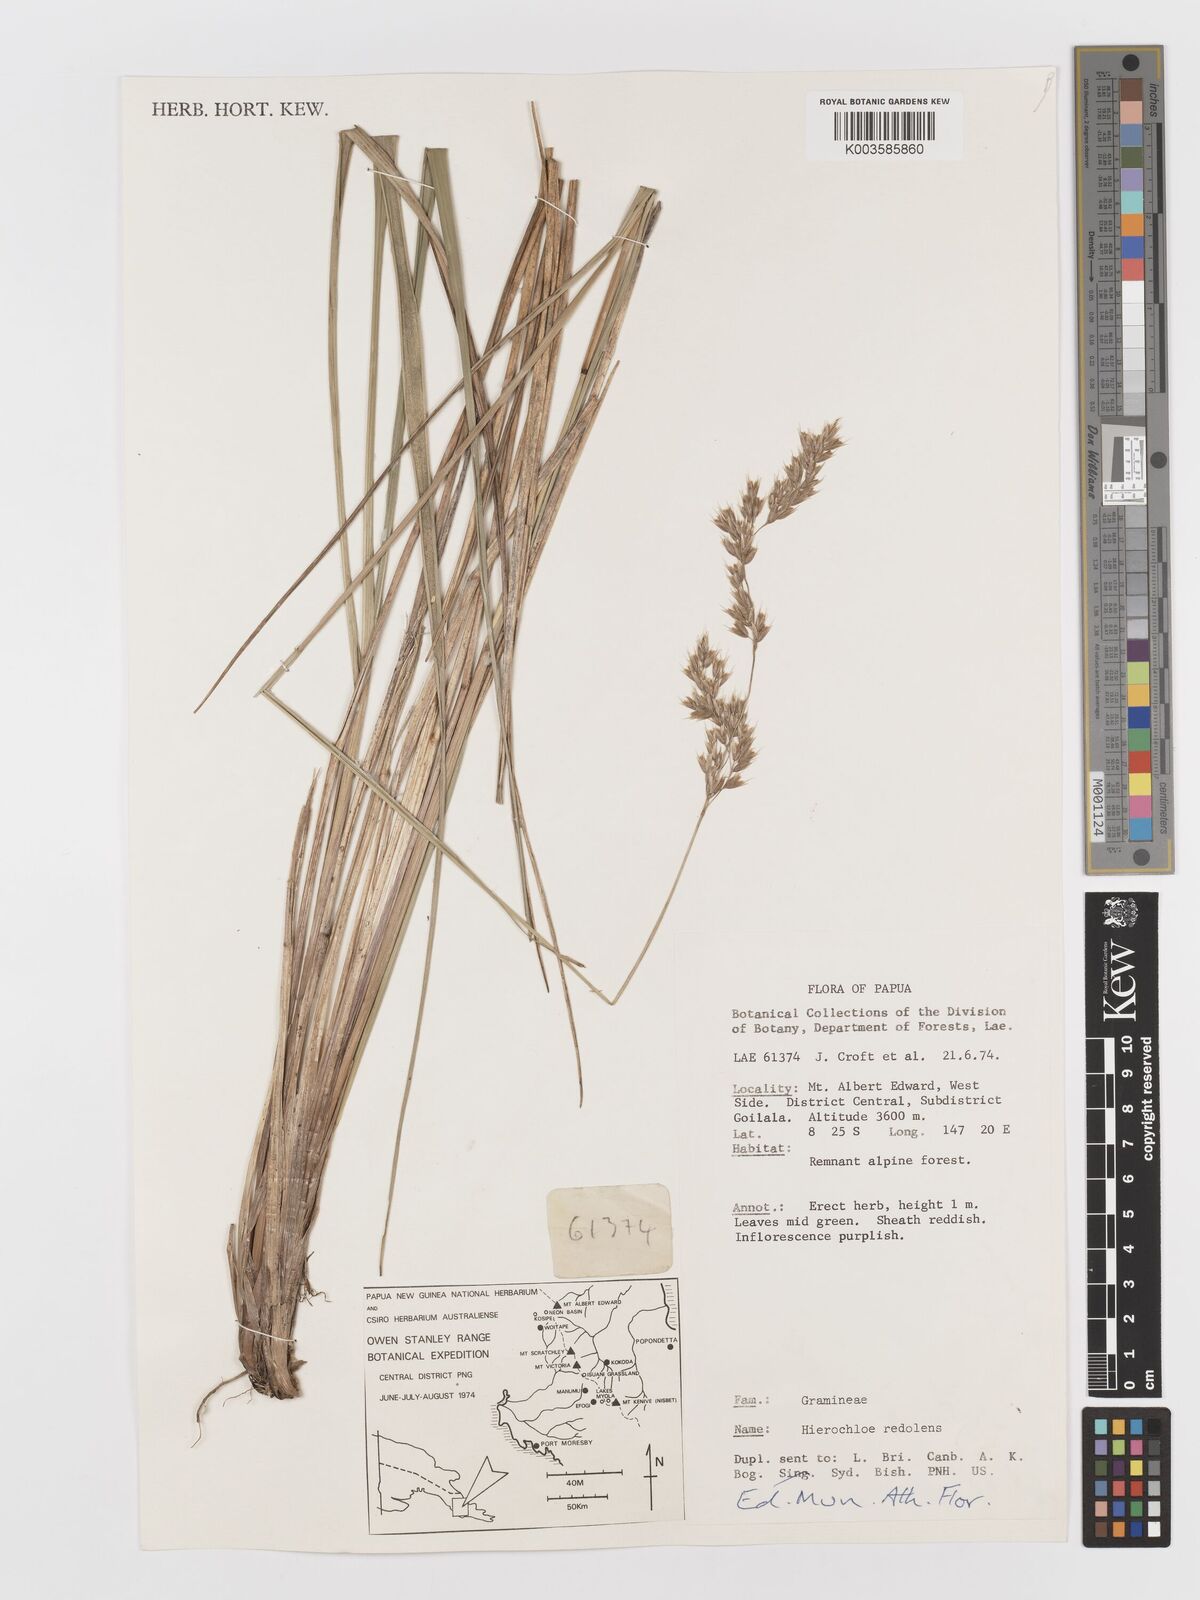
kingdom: Plantae
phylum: Tracheophyta
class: Liliopsida
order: Poales
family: Poaceae
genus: Anthoxanthum
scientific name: Anthoxanthum redolens
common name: Sweet holy grass
